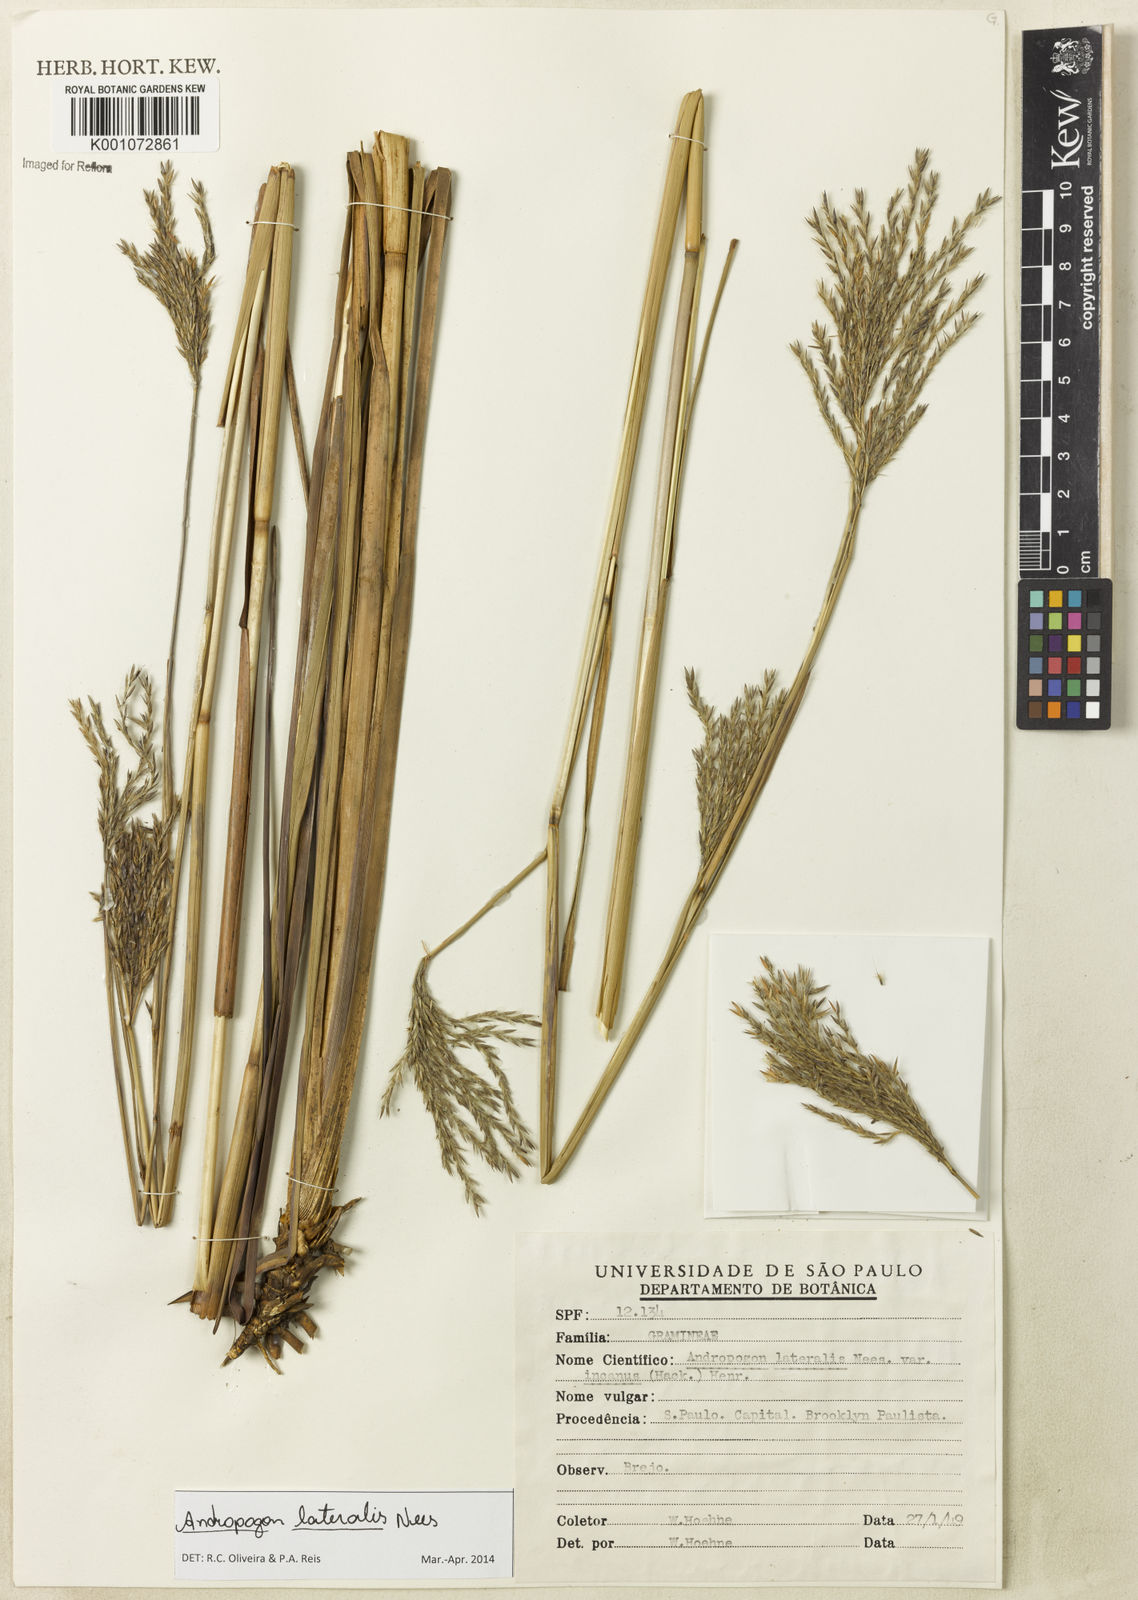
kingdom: Plantae
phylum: Tracheophyta
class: Liliopsida
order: Poales
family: Poaceae
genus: Andropogon
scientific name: Andropogon lateralis
